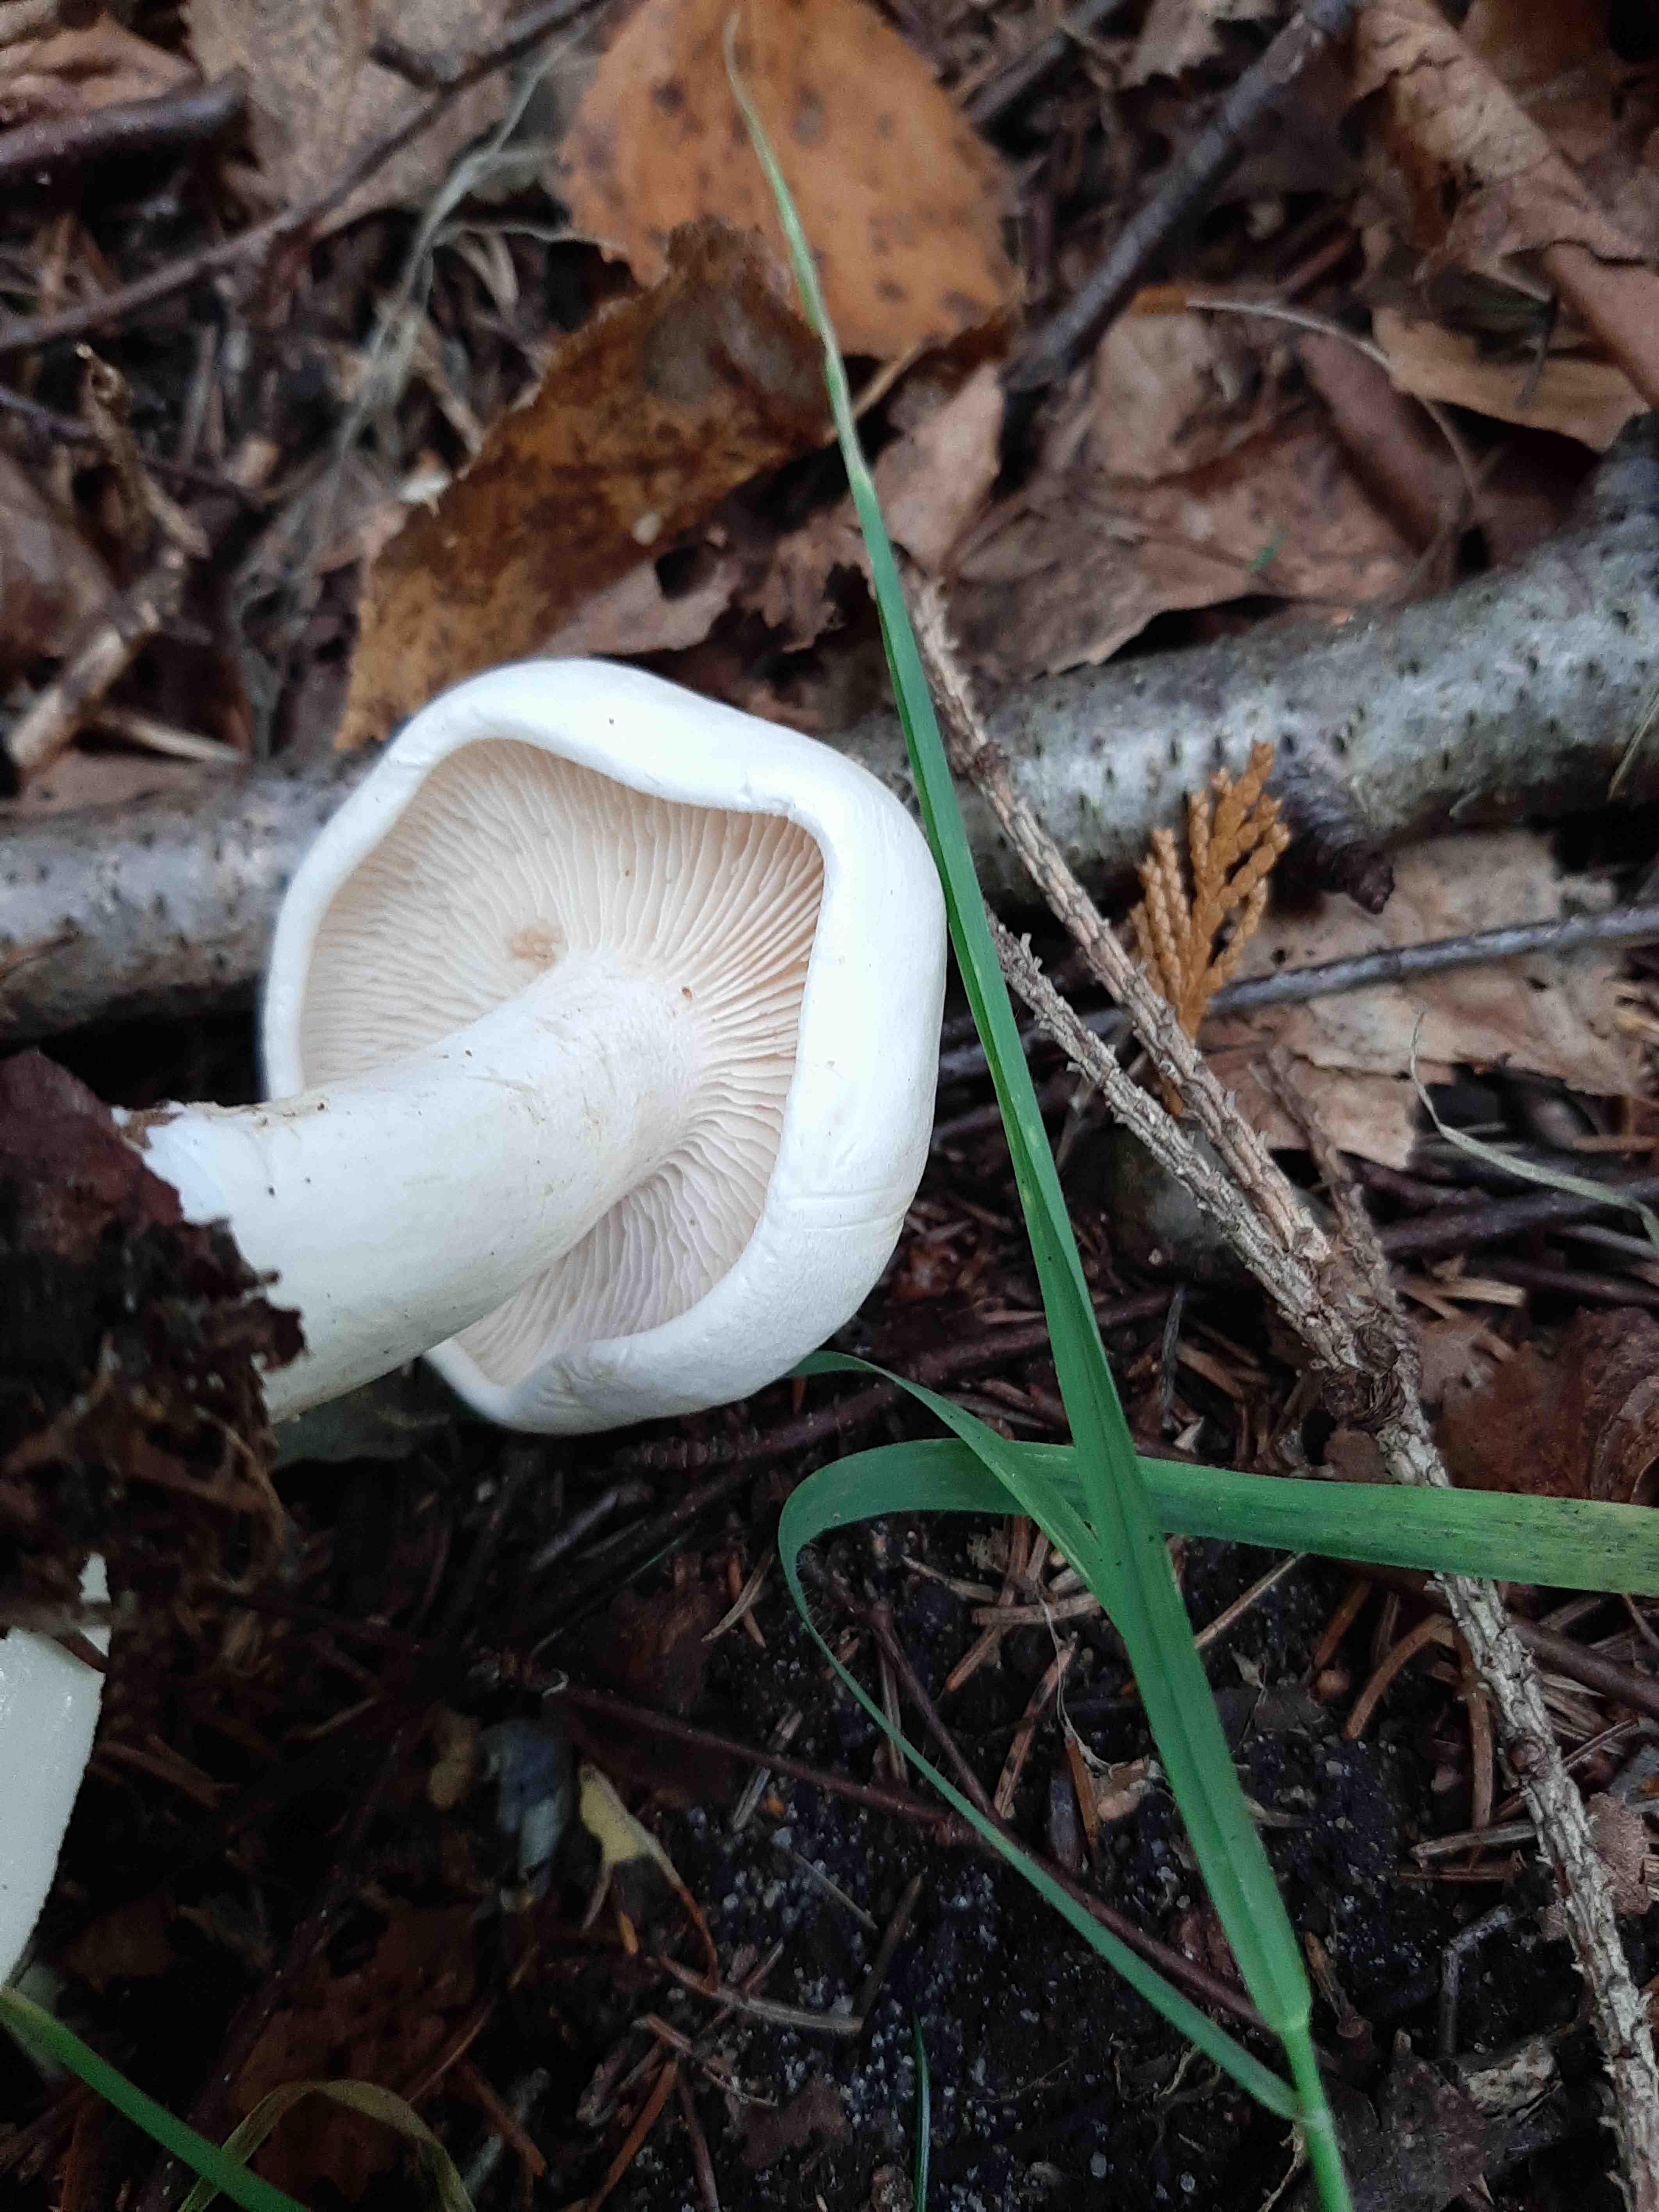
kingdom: Fungi
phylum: Basidiomycota
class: Agaricomycetes
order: Agaricales
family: Tricholomataceae
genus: Tricholoma
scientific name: Tricholoma stiparophyllum
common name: hvid ridderhat
